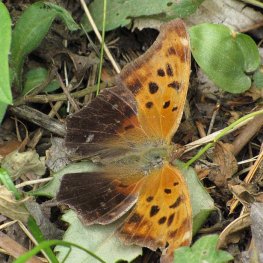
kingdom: Animalia
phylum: Arthropoda
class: Insecta
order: Lepidoptera
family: Nymphalidae
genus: Polygonia
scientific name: Polygonia interrogationis
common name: Question Mark
